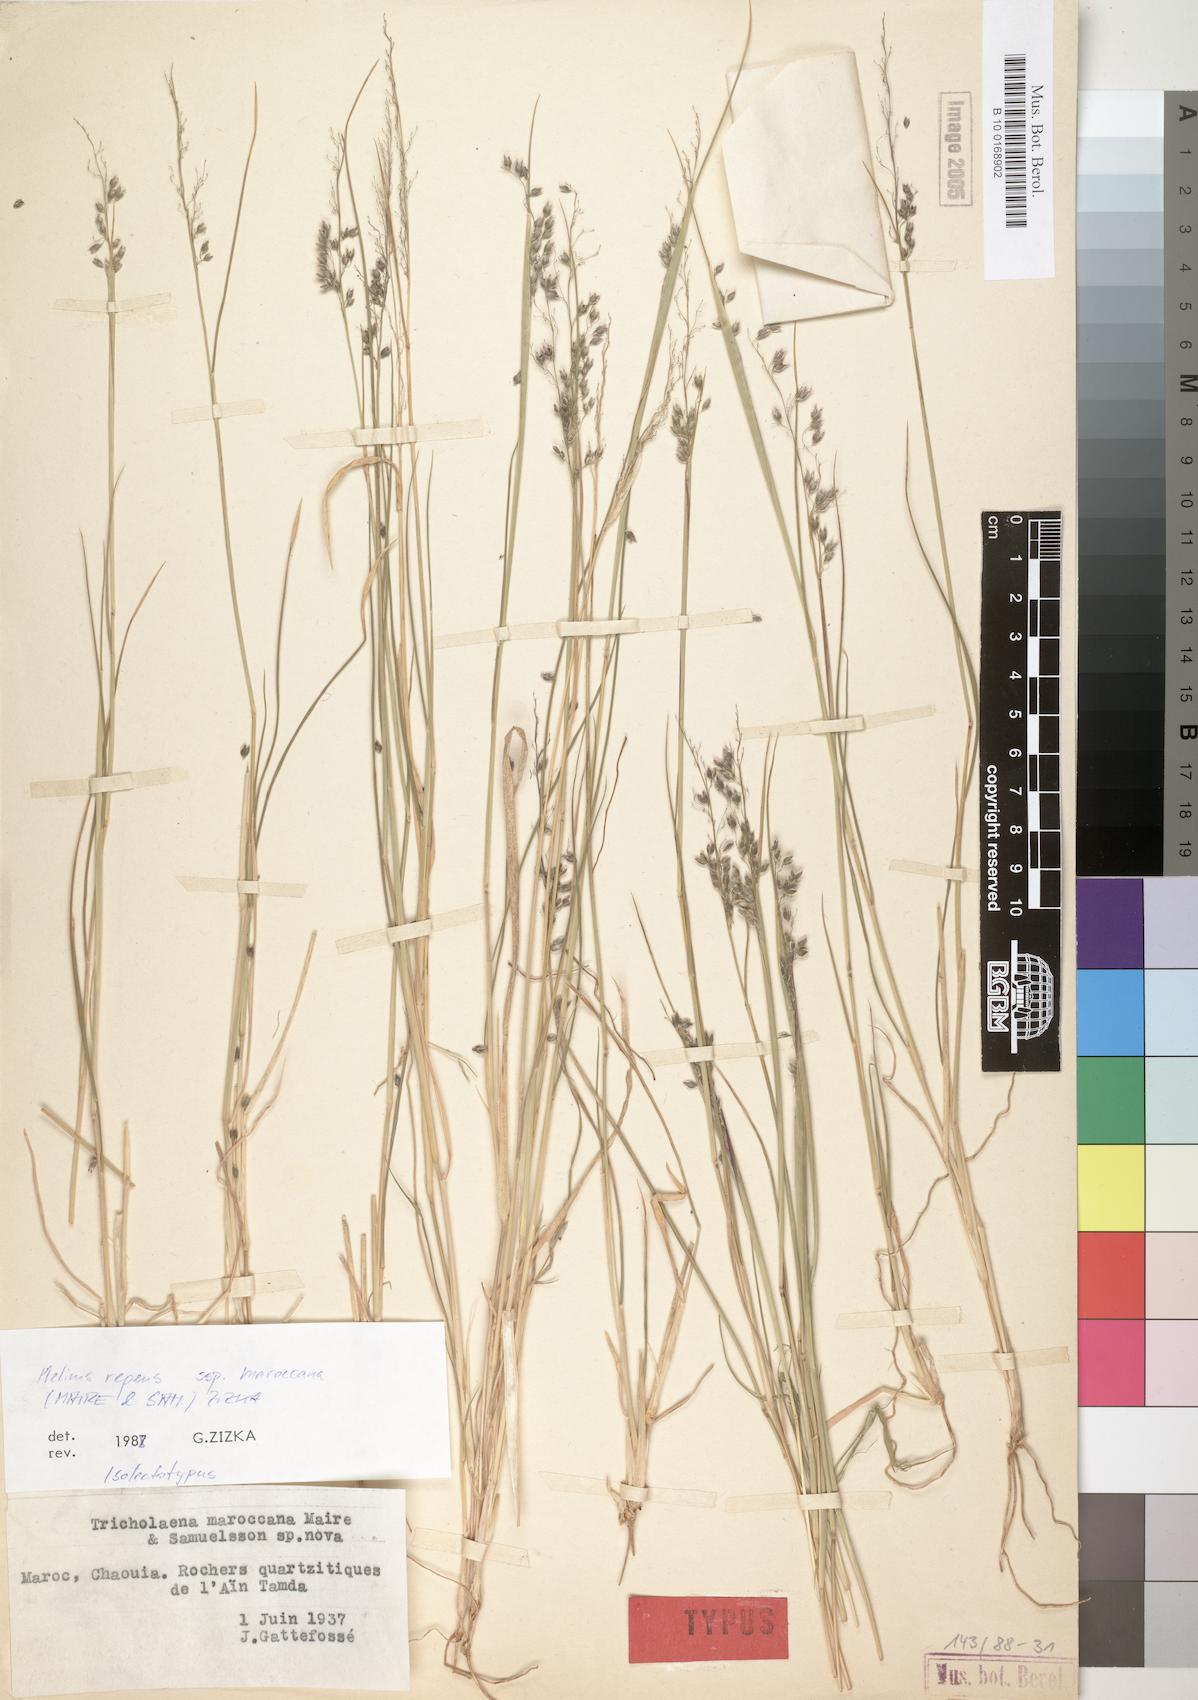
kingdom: Plantae
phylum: Tracheophyta
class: Liliopsida
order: Poales
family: Poaceae
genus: Melinis
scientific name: Melinis maroccana
